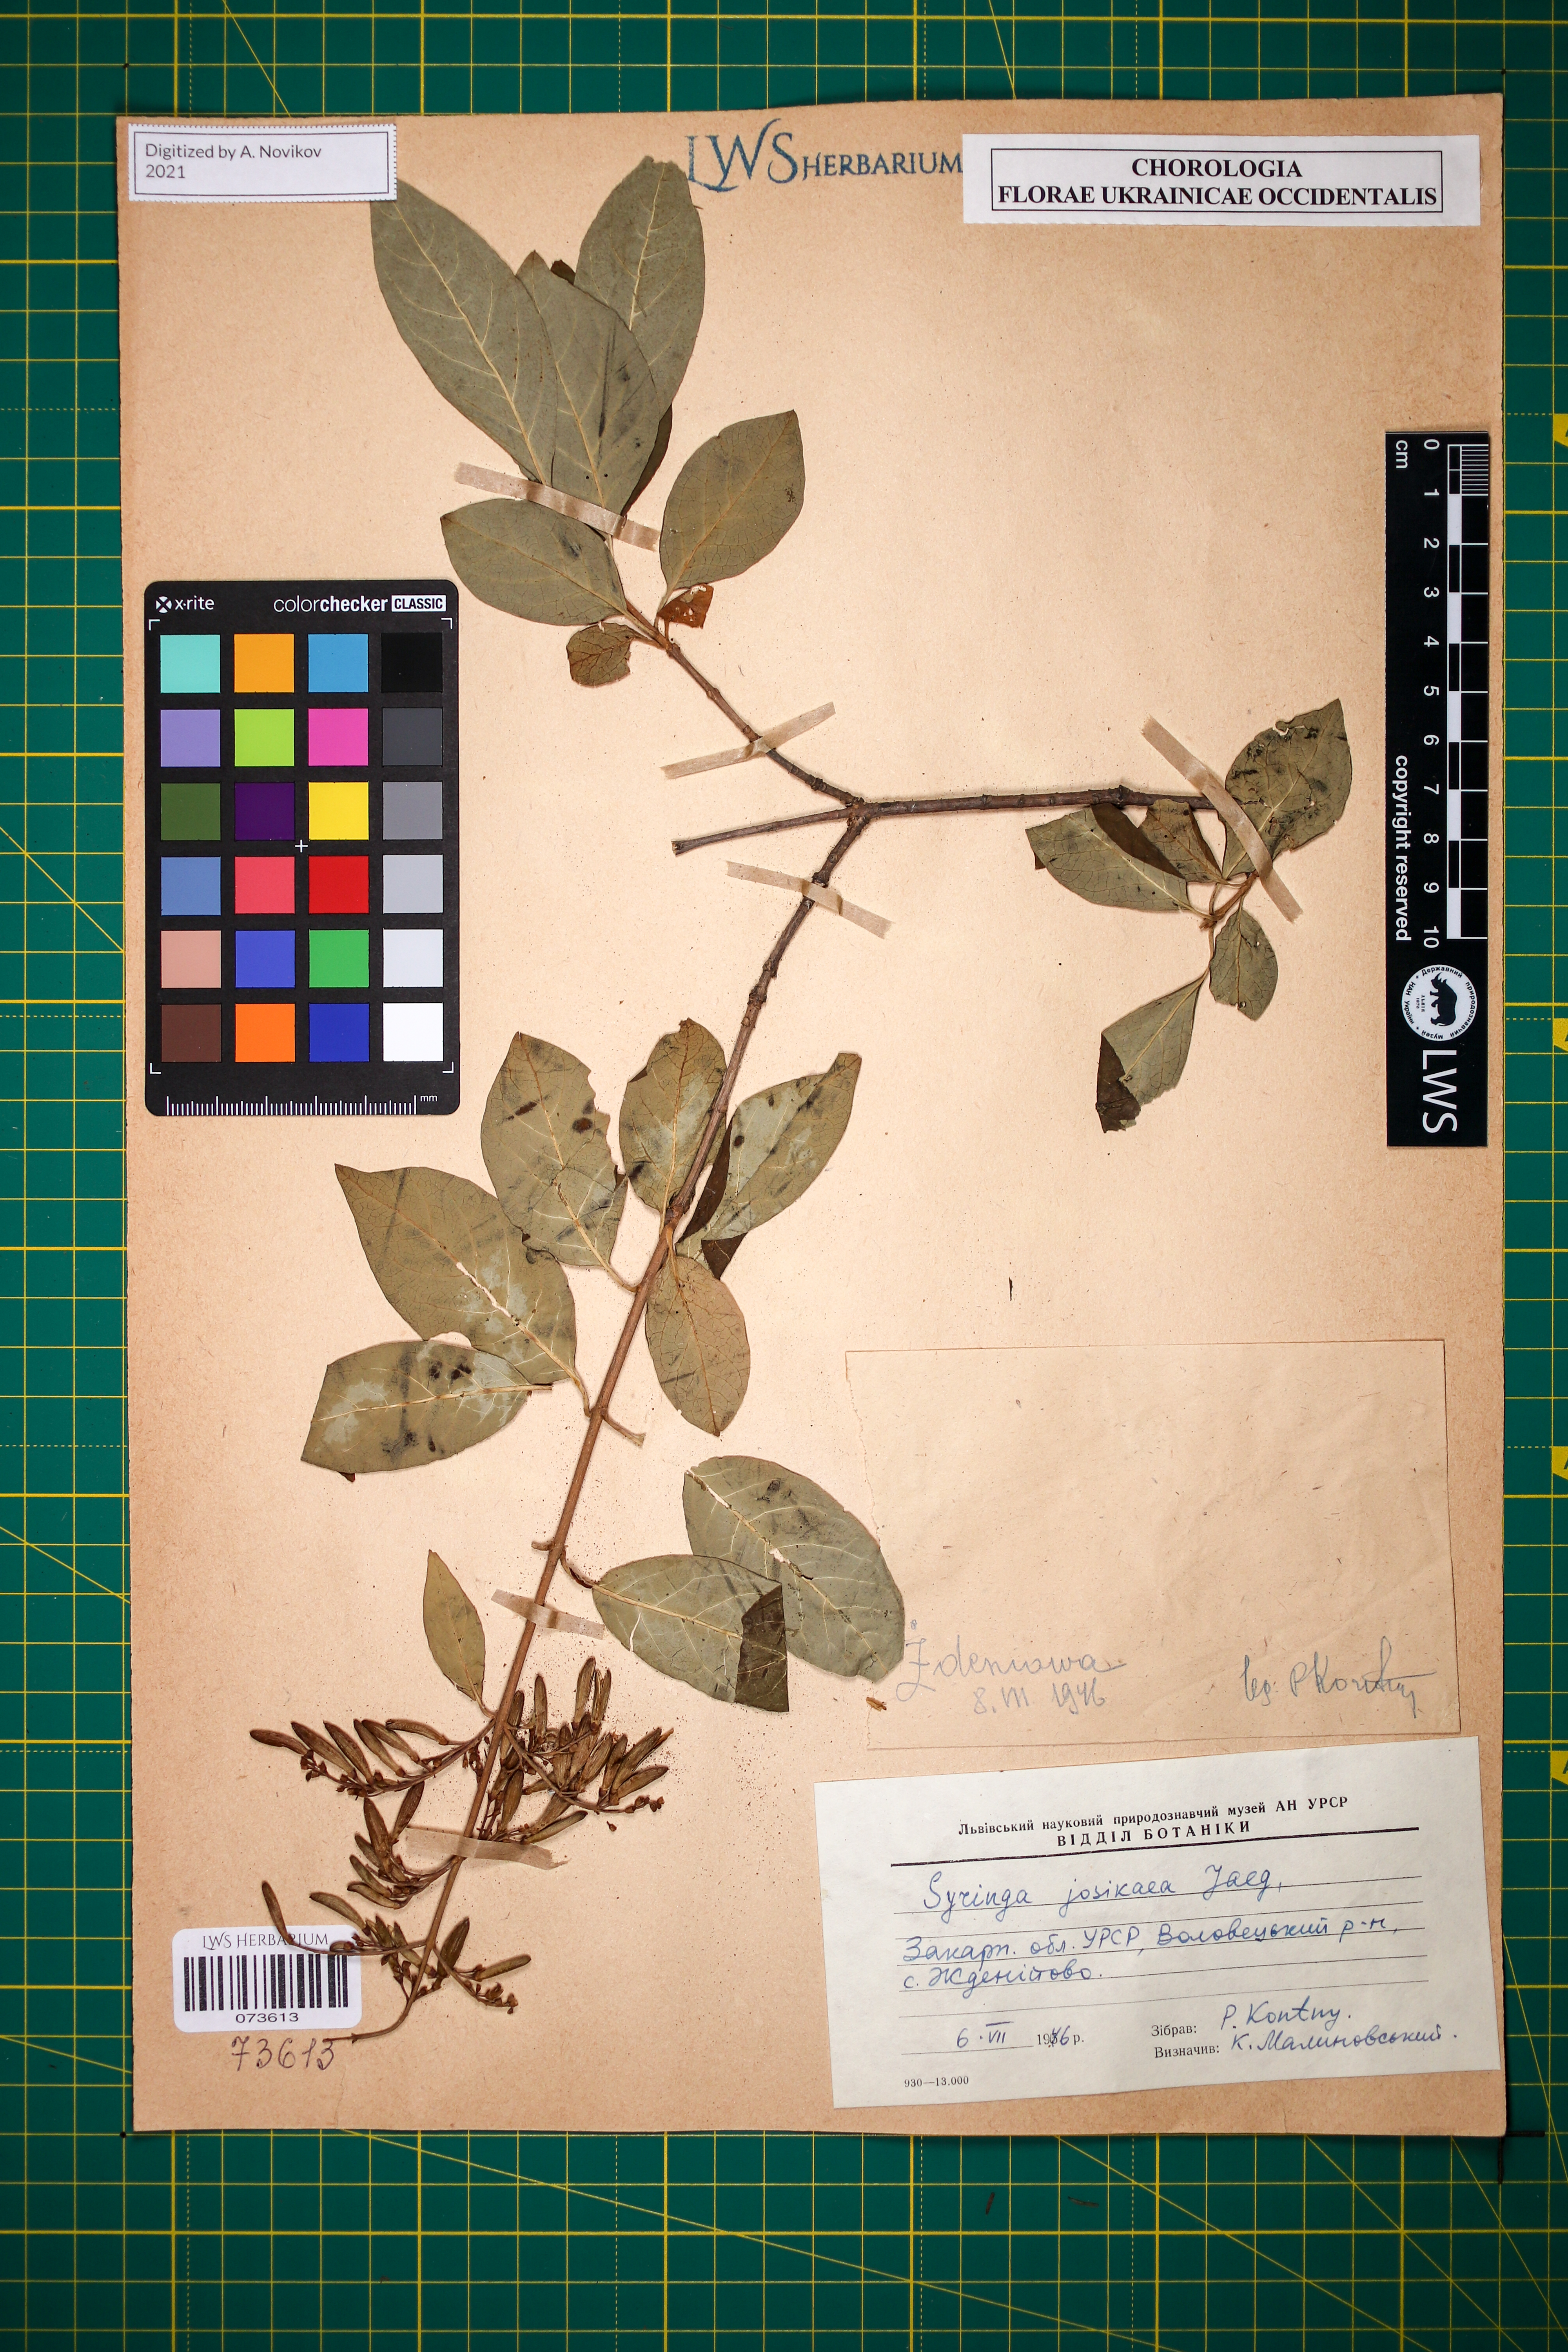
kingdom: Plantae
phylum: Tracheophyta
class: Magnoliopsida
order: Lamiales
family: Oleaceae
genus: Syringa
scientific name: Syringa josikaea
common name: Hungarian lilac
